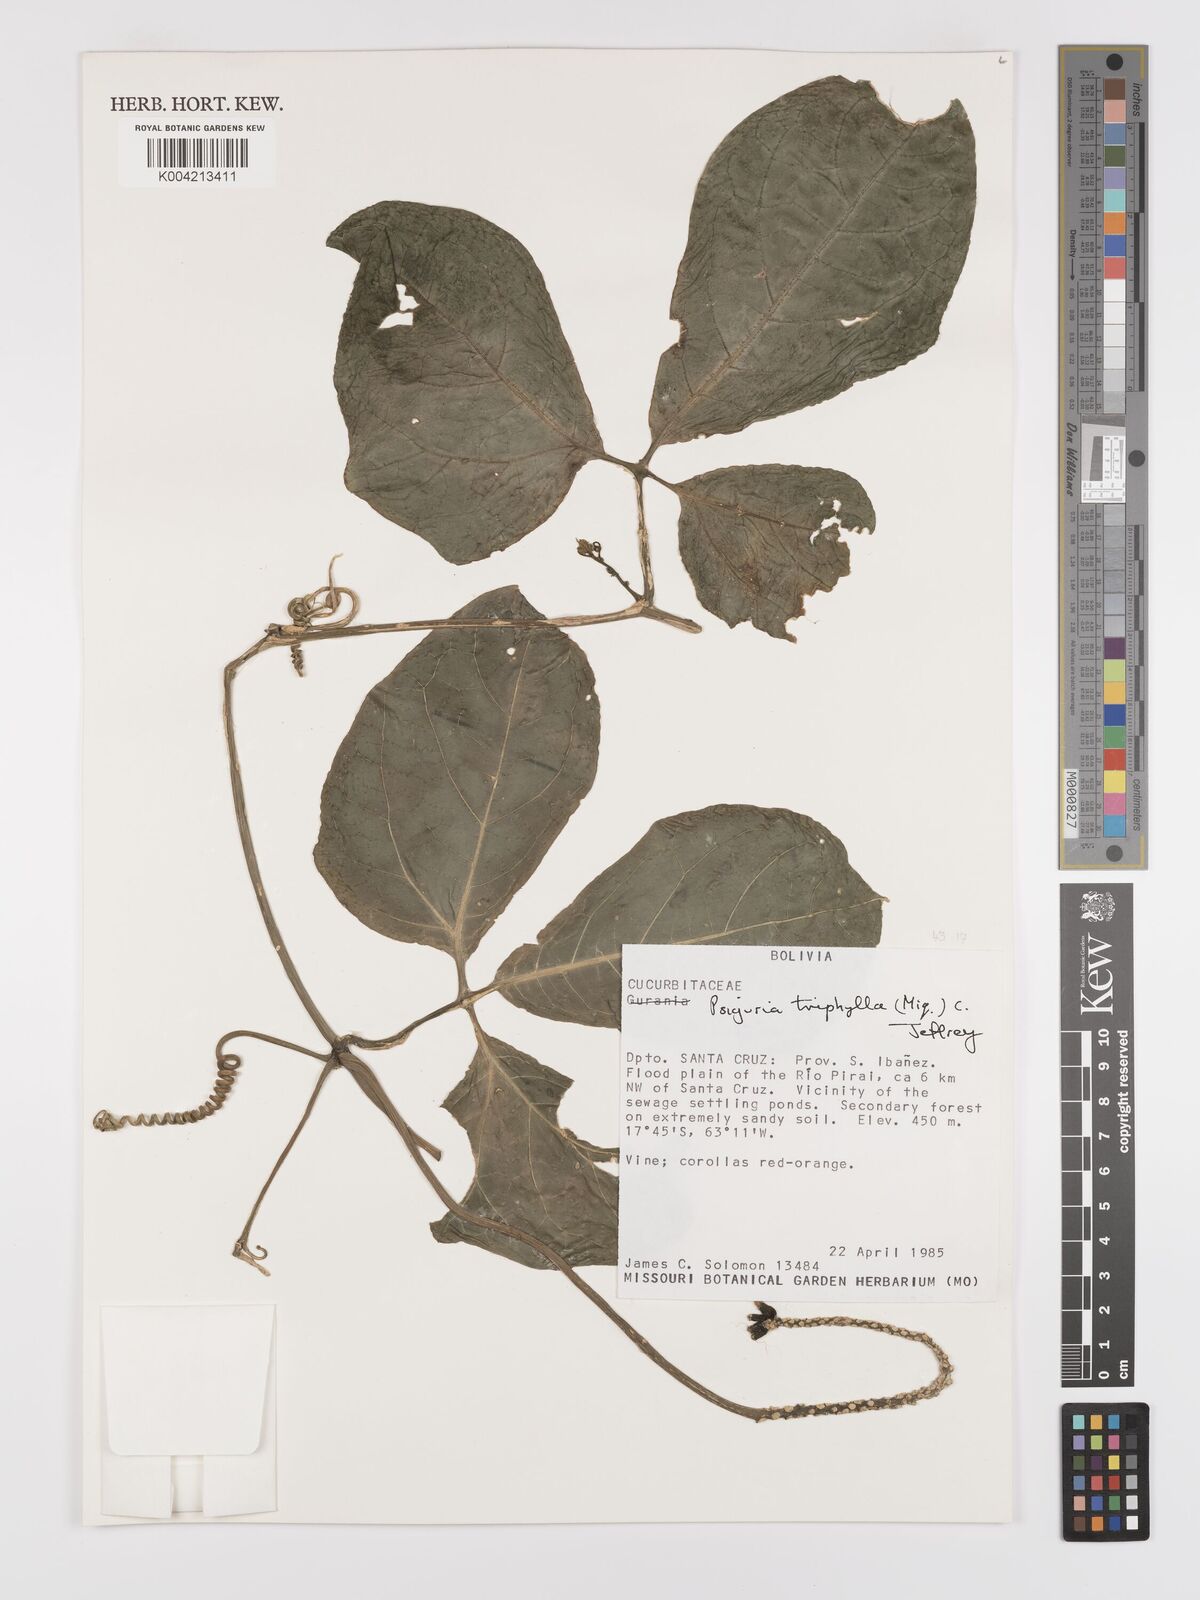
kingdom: Plantae
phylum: Tracheophyta
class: Magnoliopsida
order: Cucurbitales
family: Cucurbitaceae
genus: Psiguria
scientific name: Psiguria triphylla
